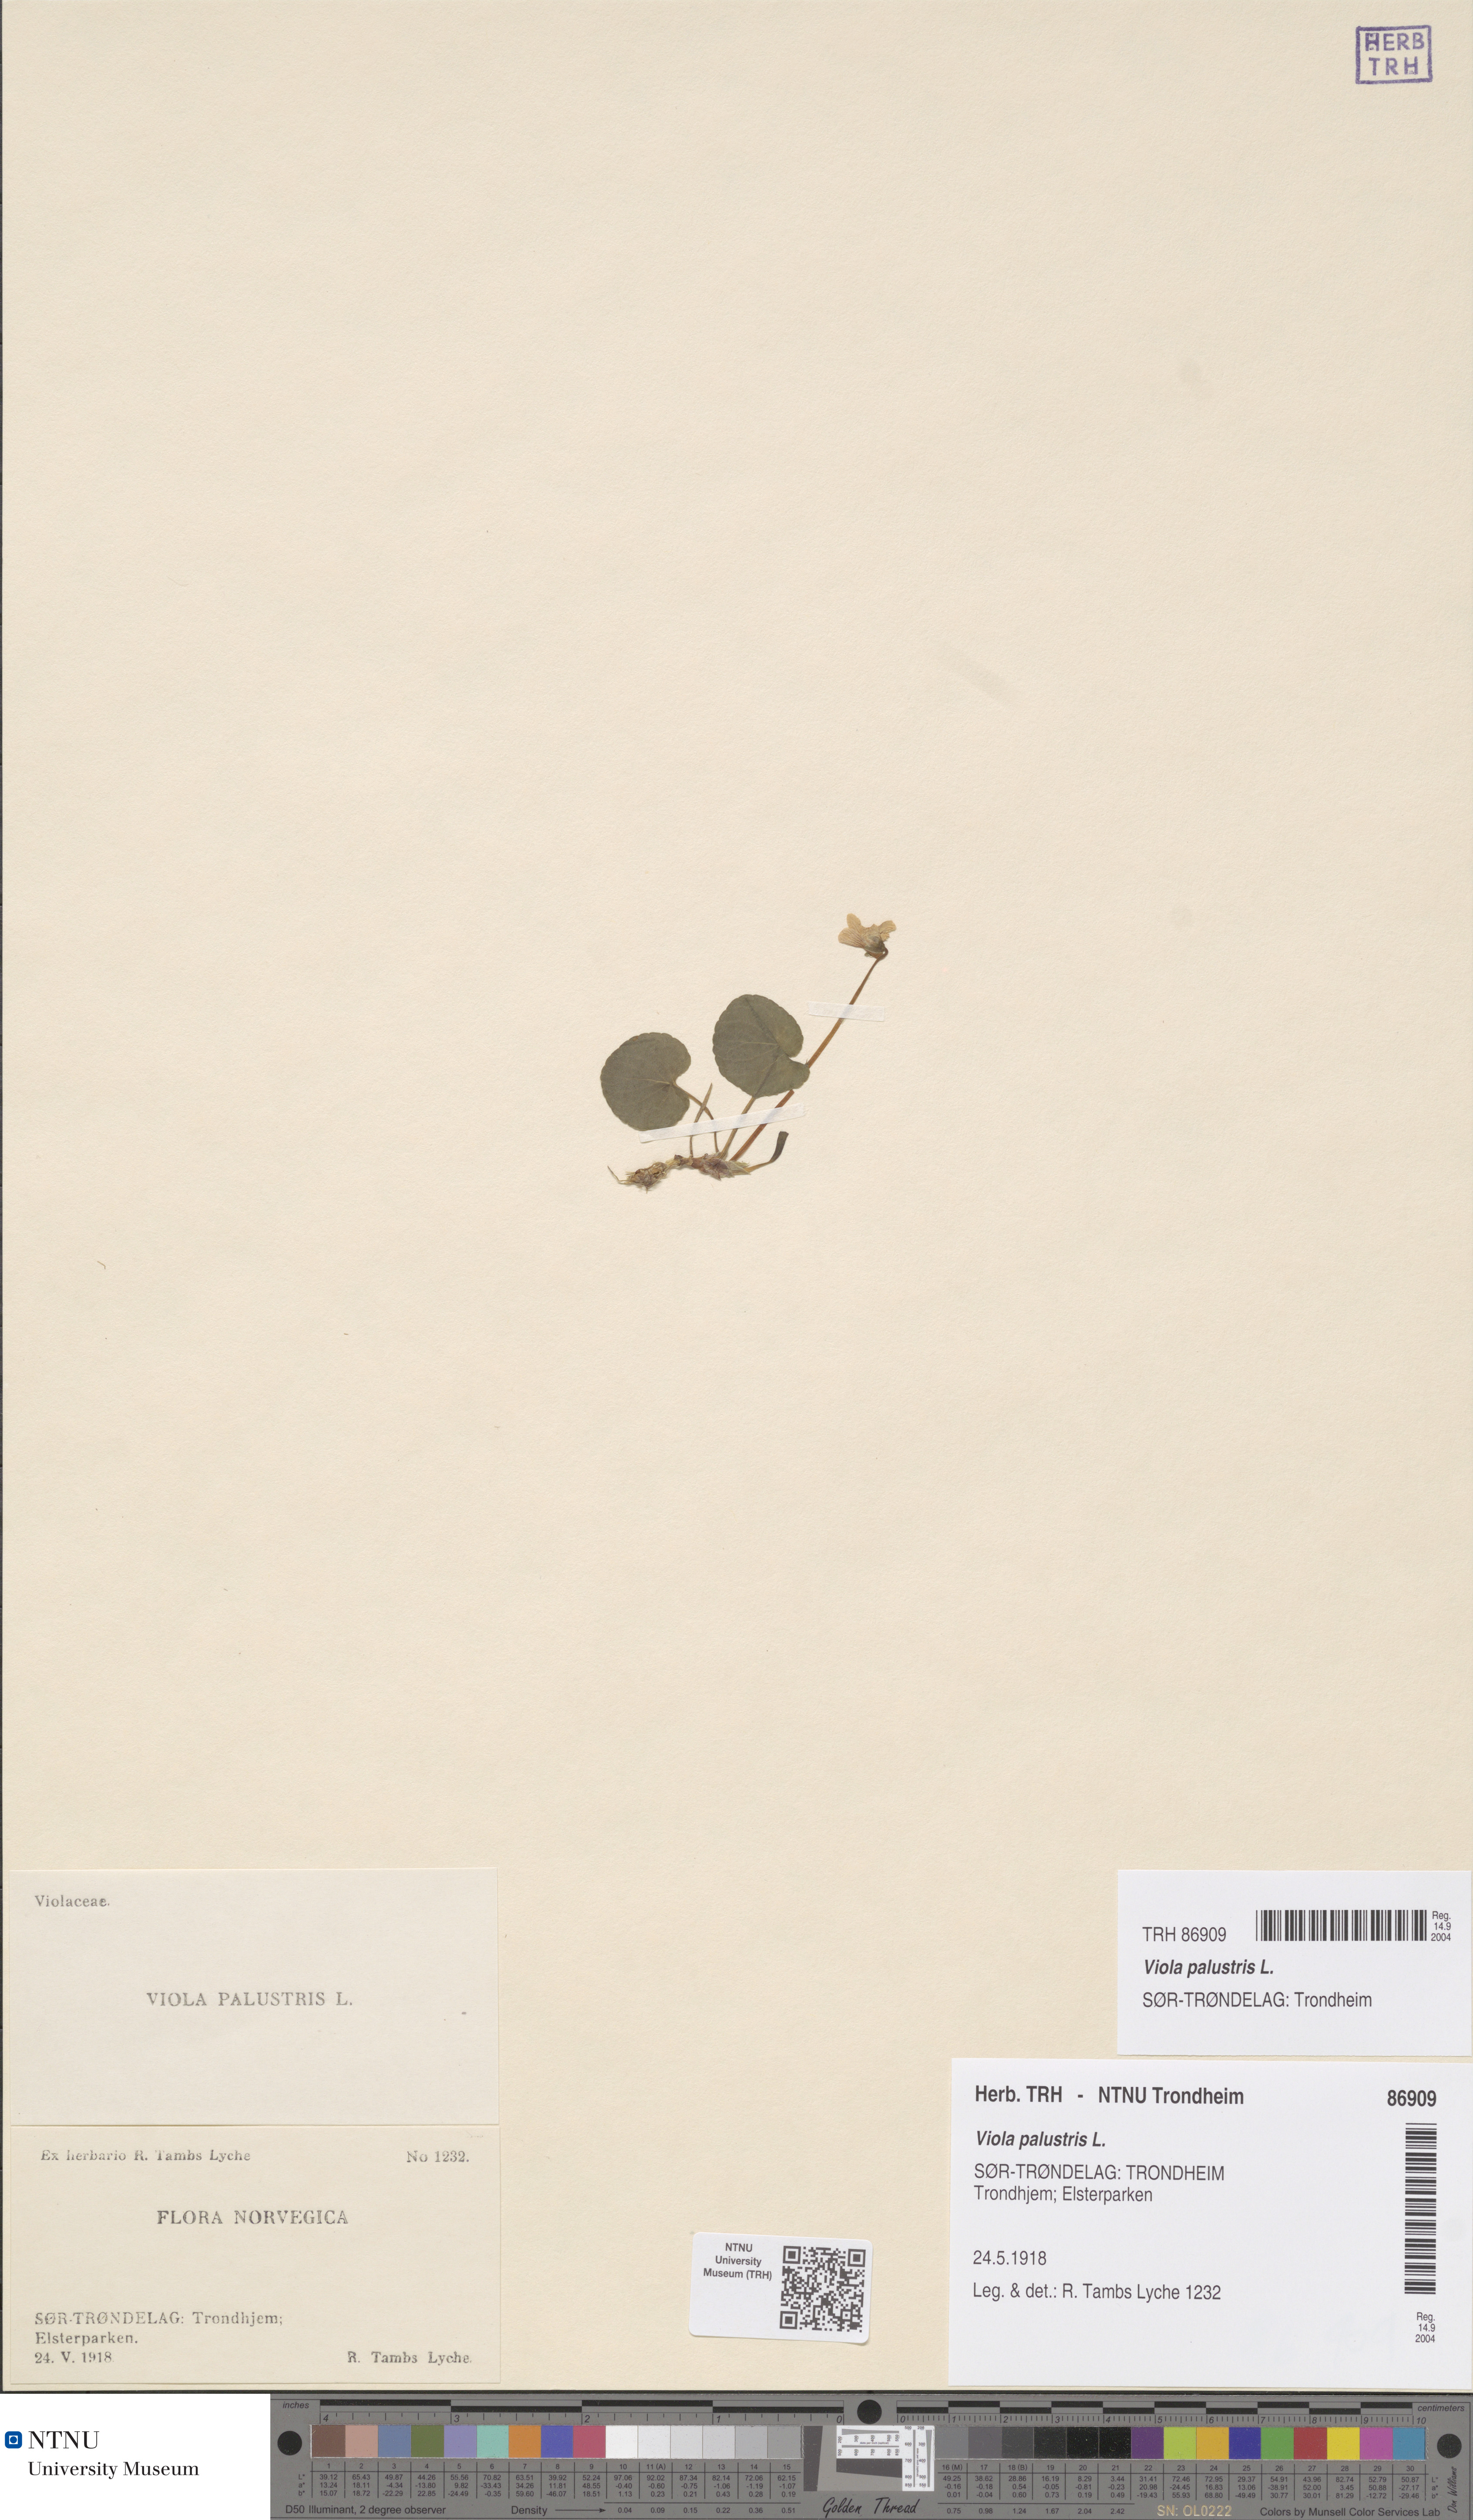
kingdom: Plantae
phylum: Tracheophyta
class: Magnoliopsida
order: Malpighiales
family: Violaceae
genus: Viola
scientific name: Viola palustris
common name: Marsh violet
